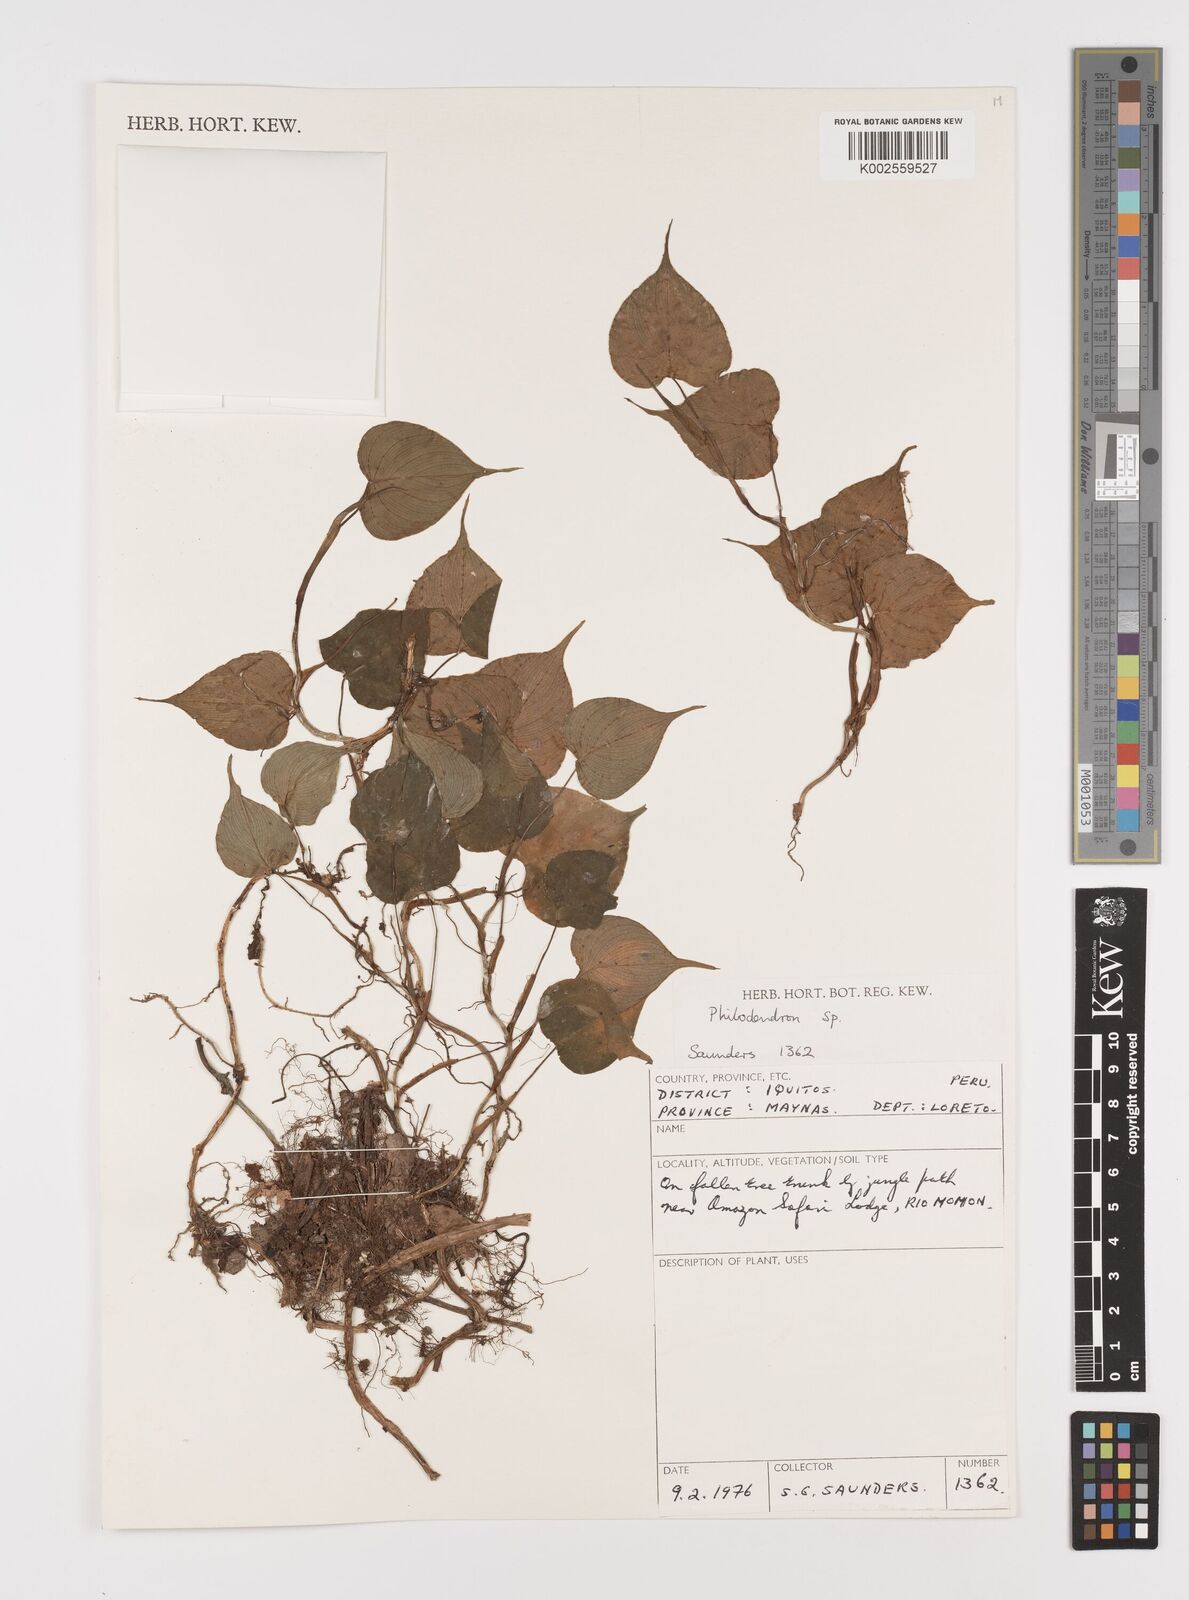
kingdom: Plantae
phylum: Tracheophyta
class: Liliopsida
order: Alismatales
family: Araceae
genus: Philodendron
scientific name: Philodendron
